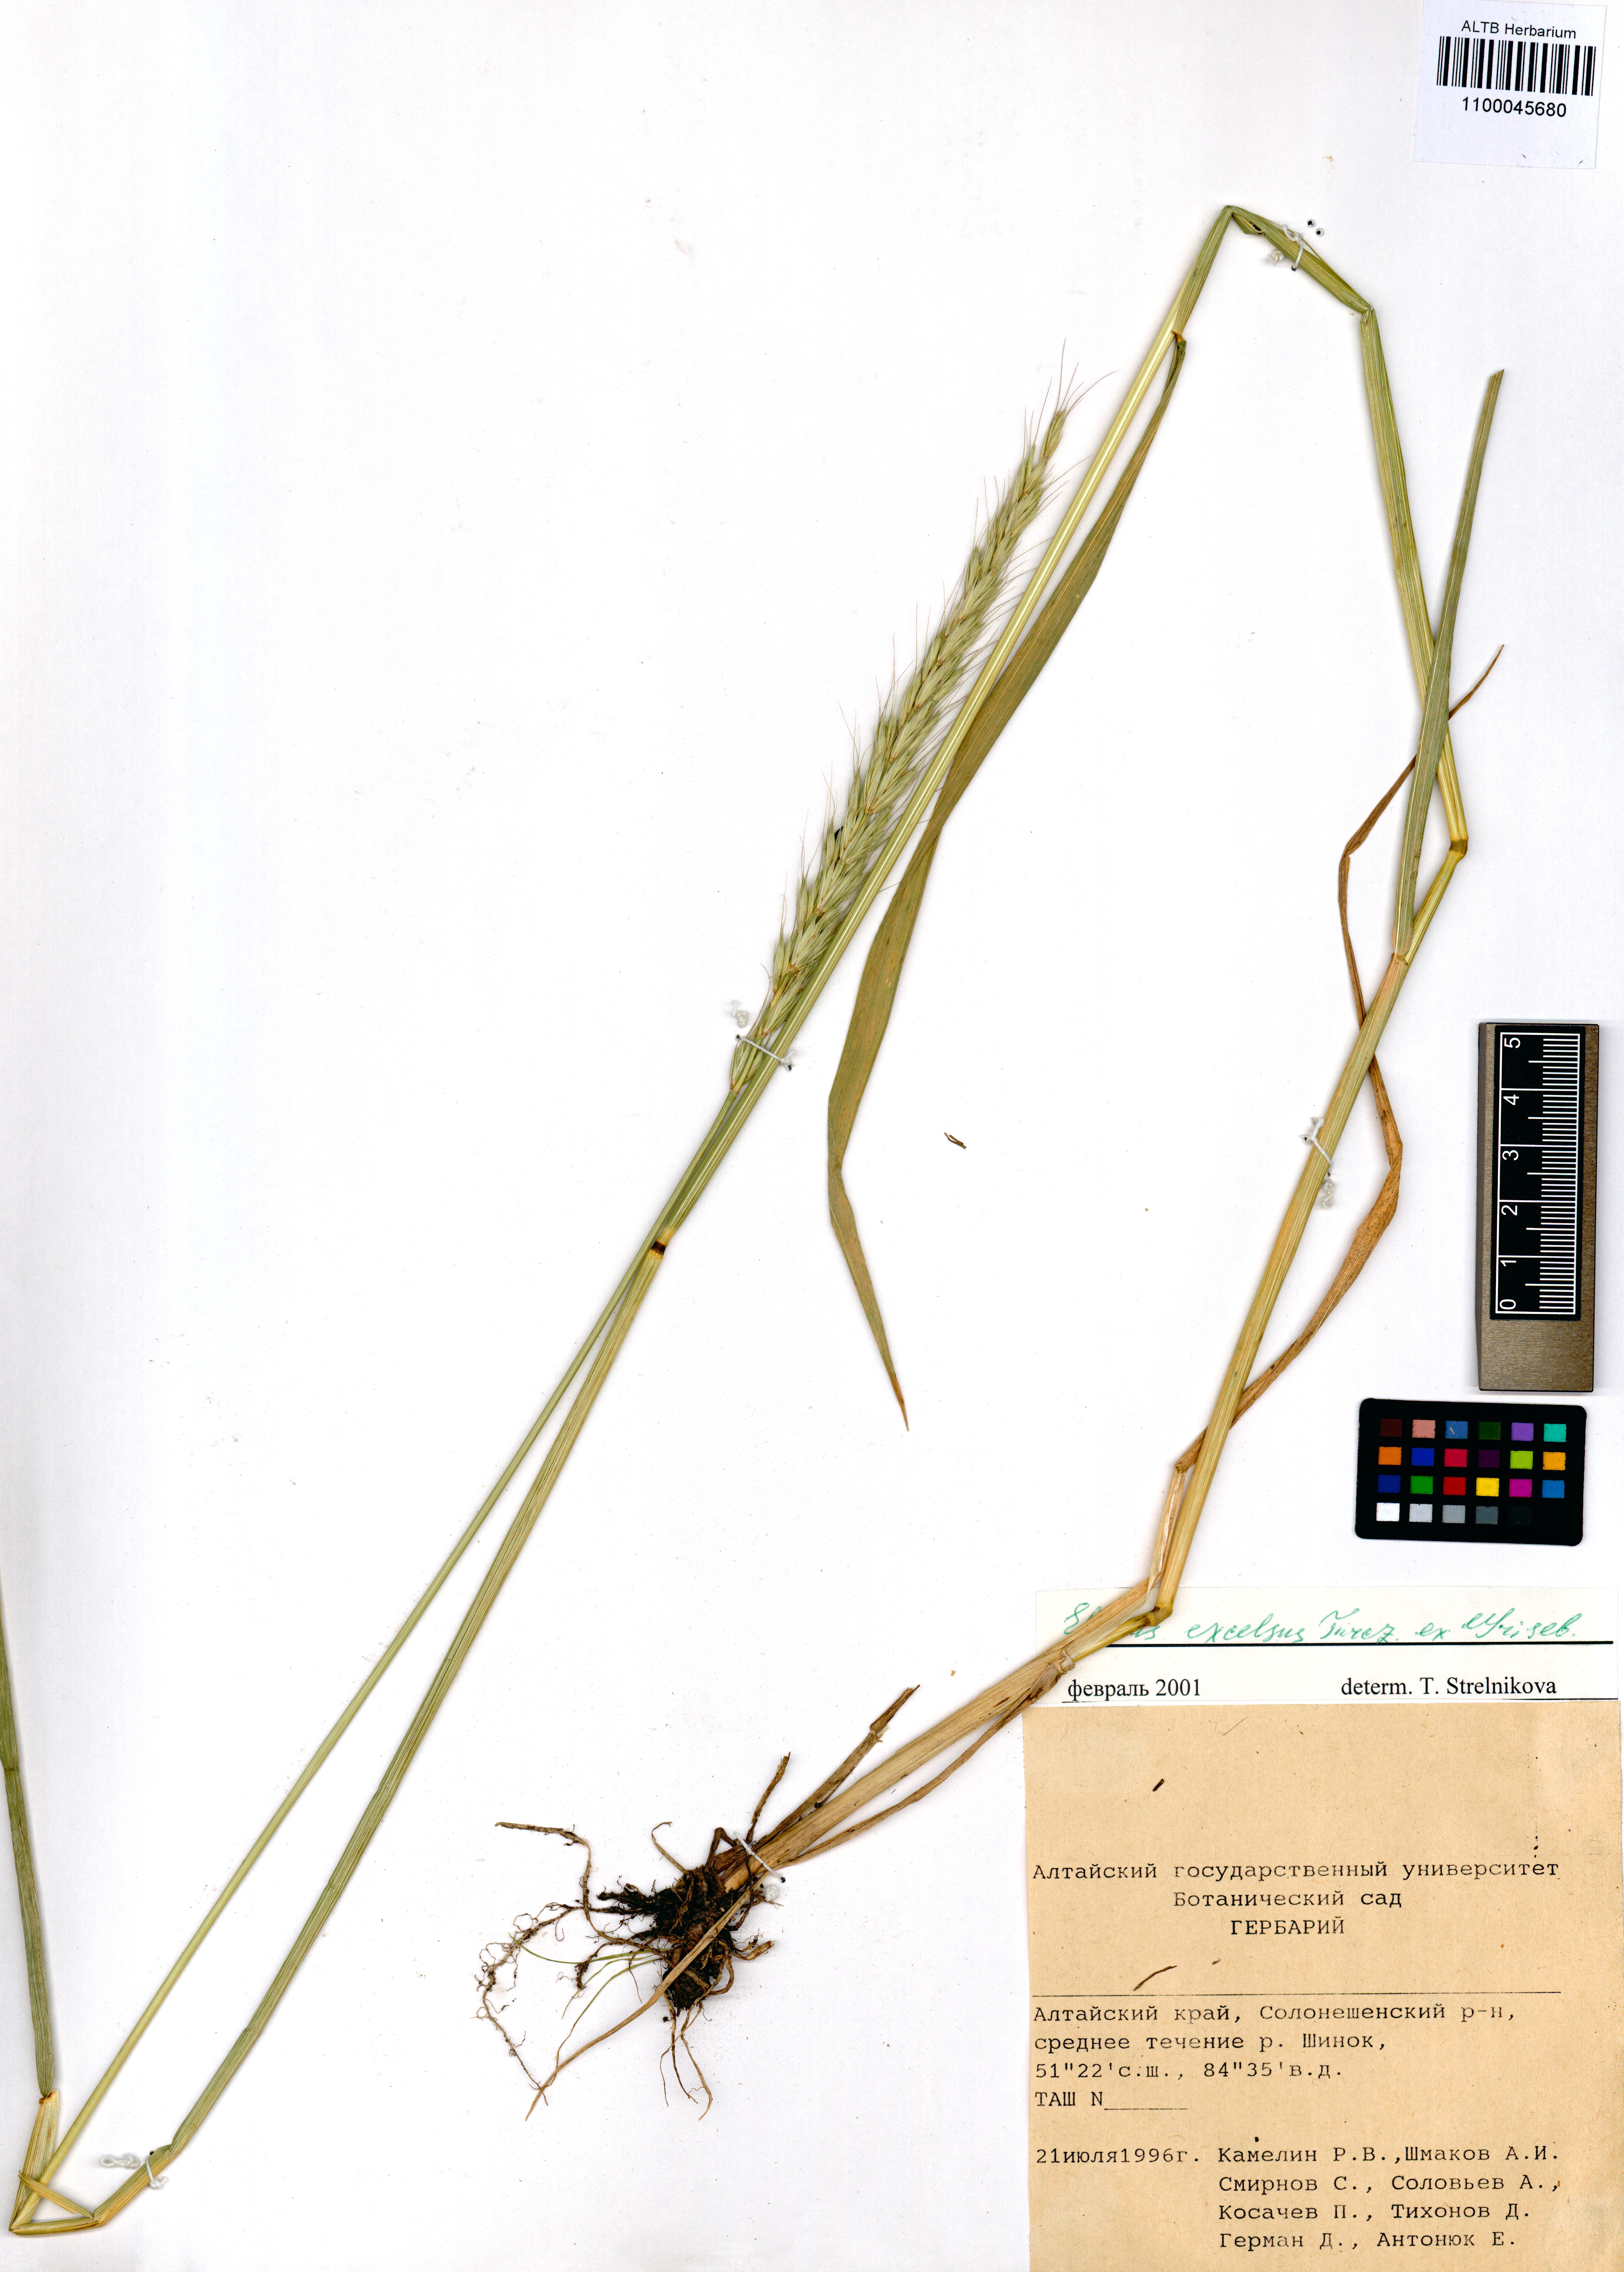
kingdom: Plantae
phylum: Tracheophyta
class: Liliopsida
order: Poales
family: Poaceae
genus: Elymus
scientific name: Elymus dahuricus
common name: Dahurian wild rye
